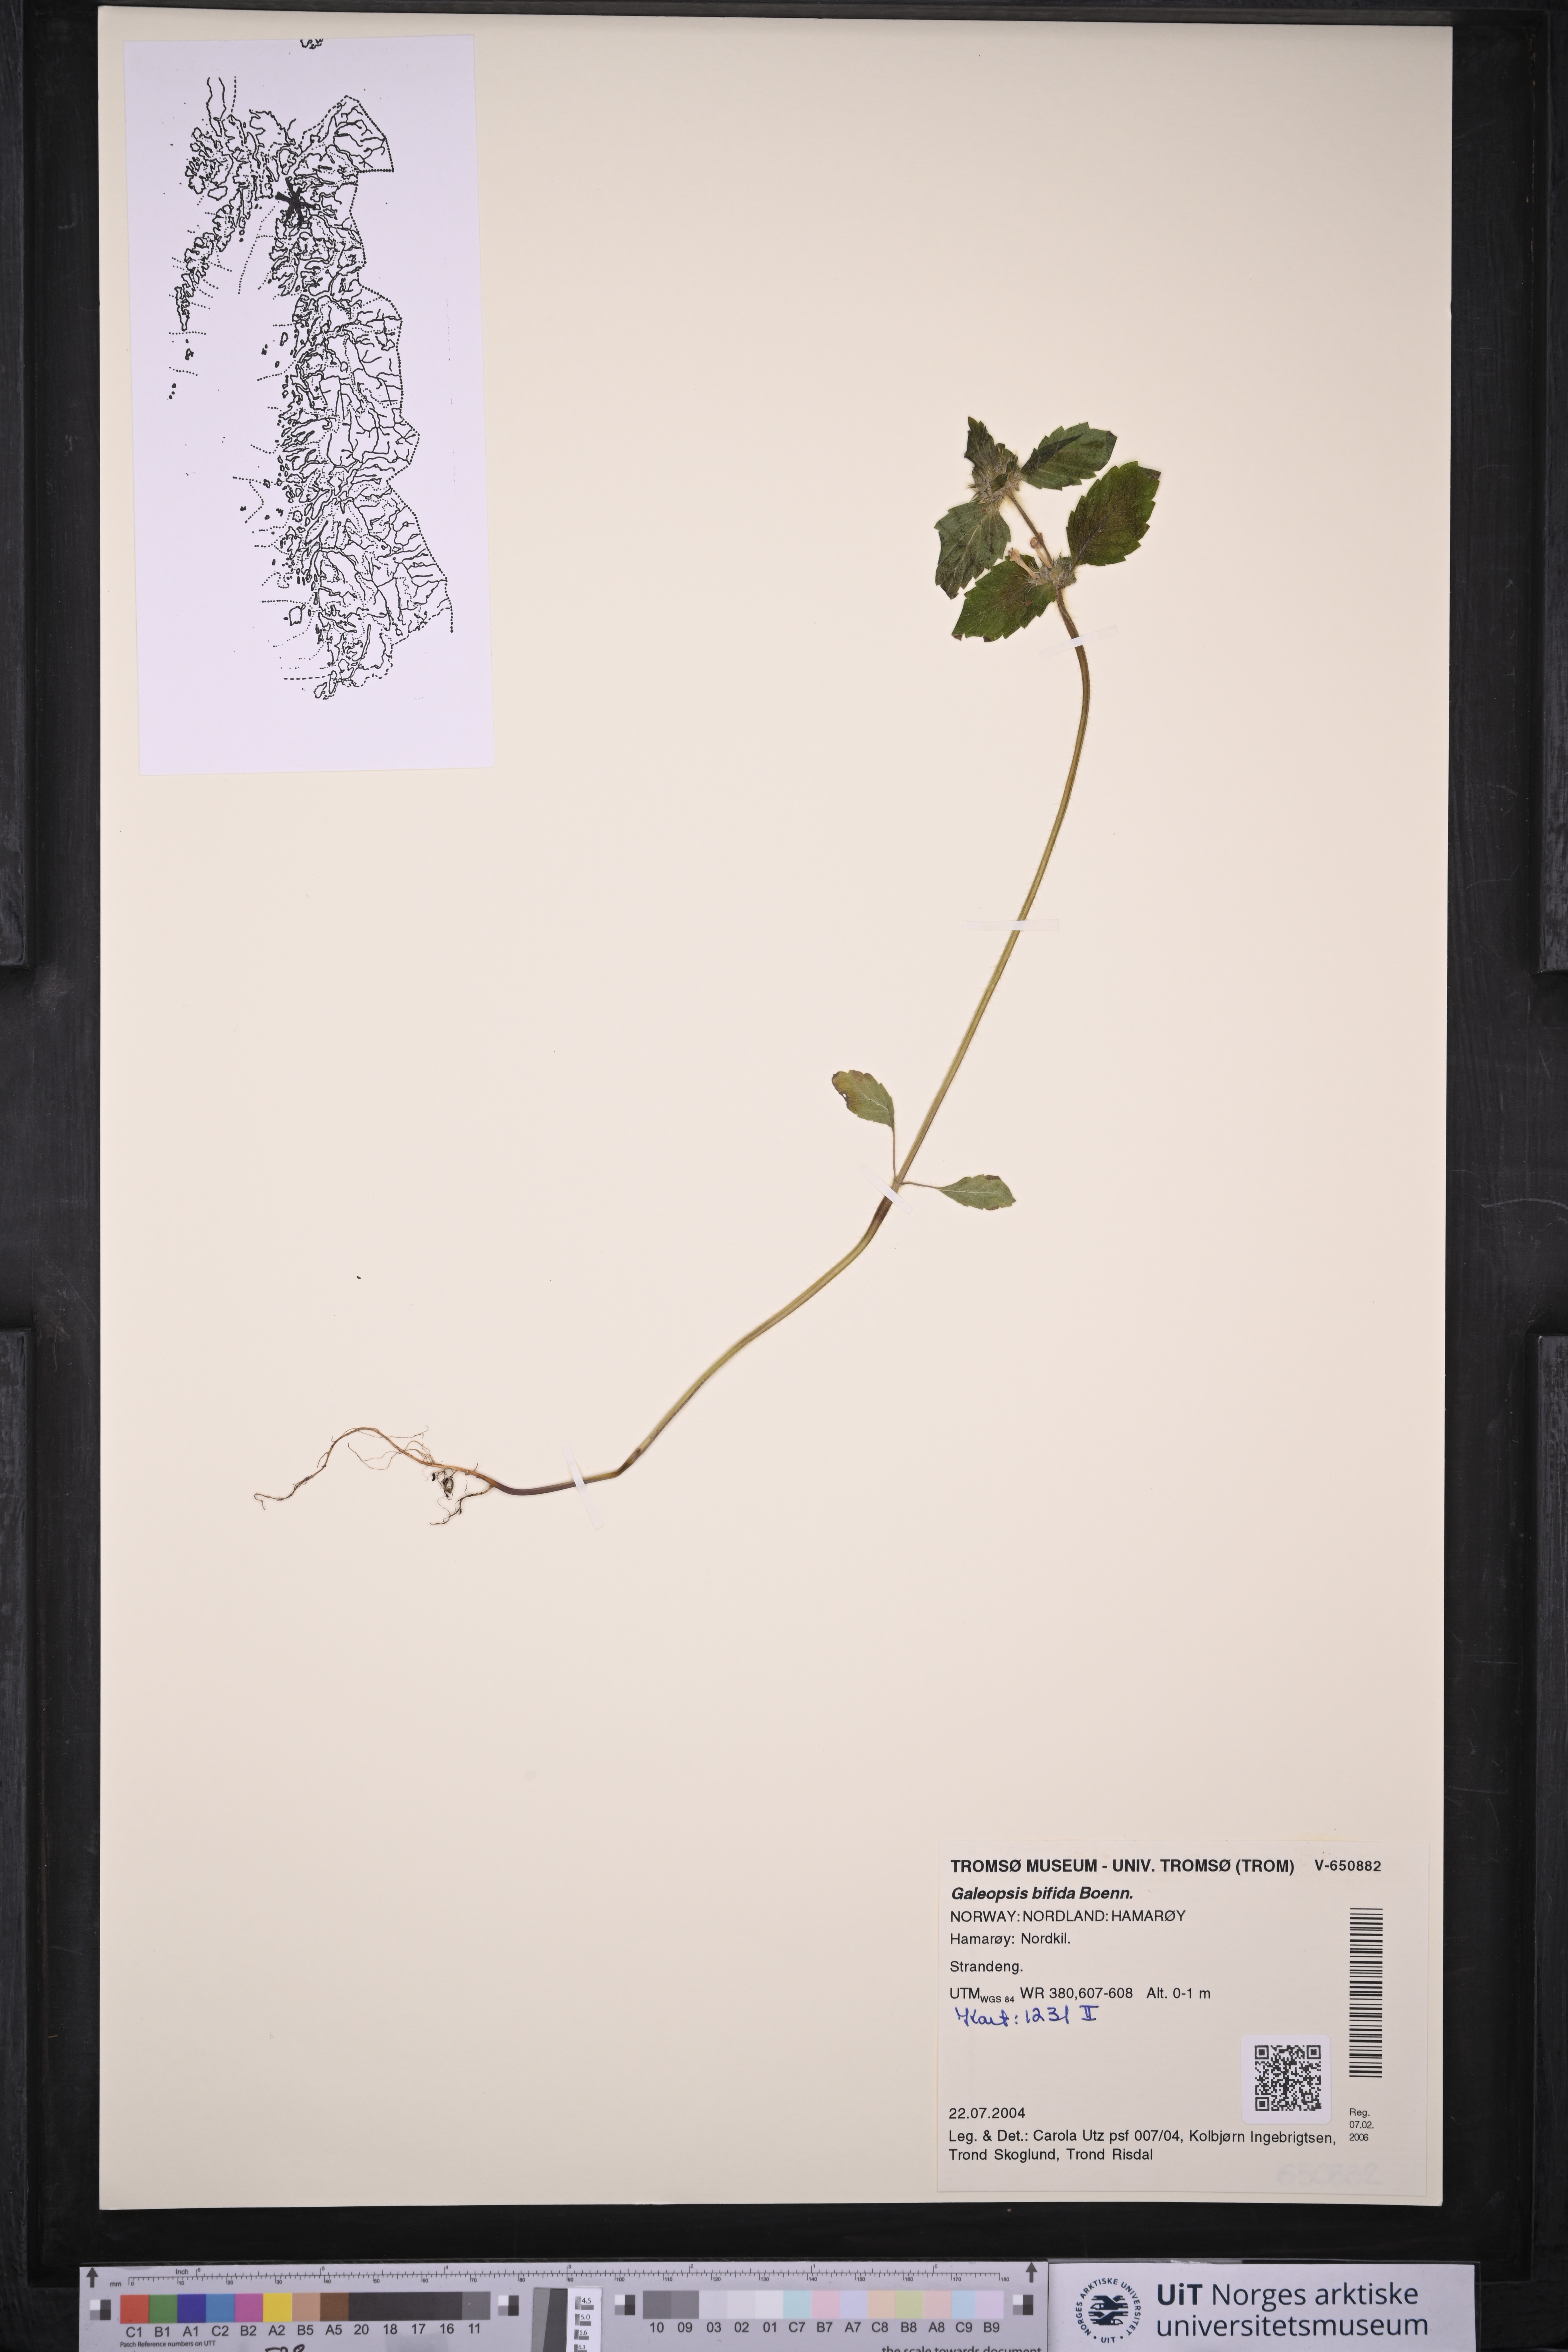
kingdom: Plantae
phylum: Tracheophyta
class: Magnoliopsida
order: Lamiales
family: Lamiaceae
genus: Galeopsis
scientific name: Galeopsis bifida
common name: Bifid hemp-nettle
